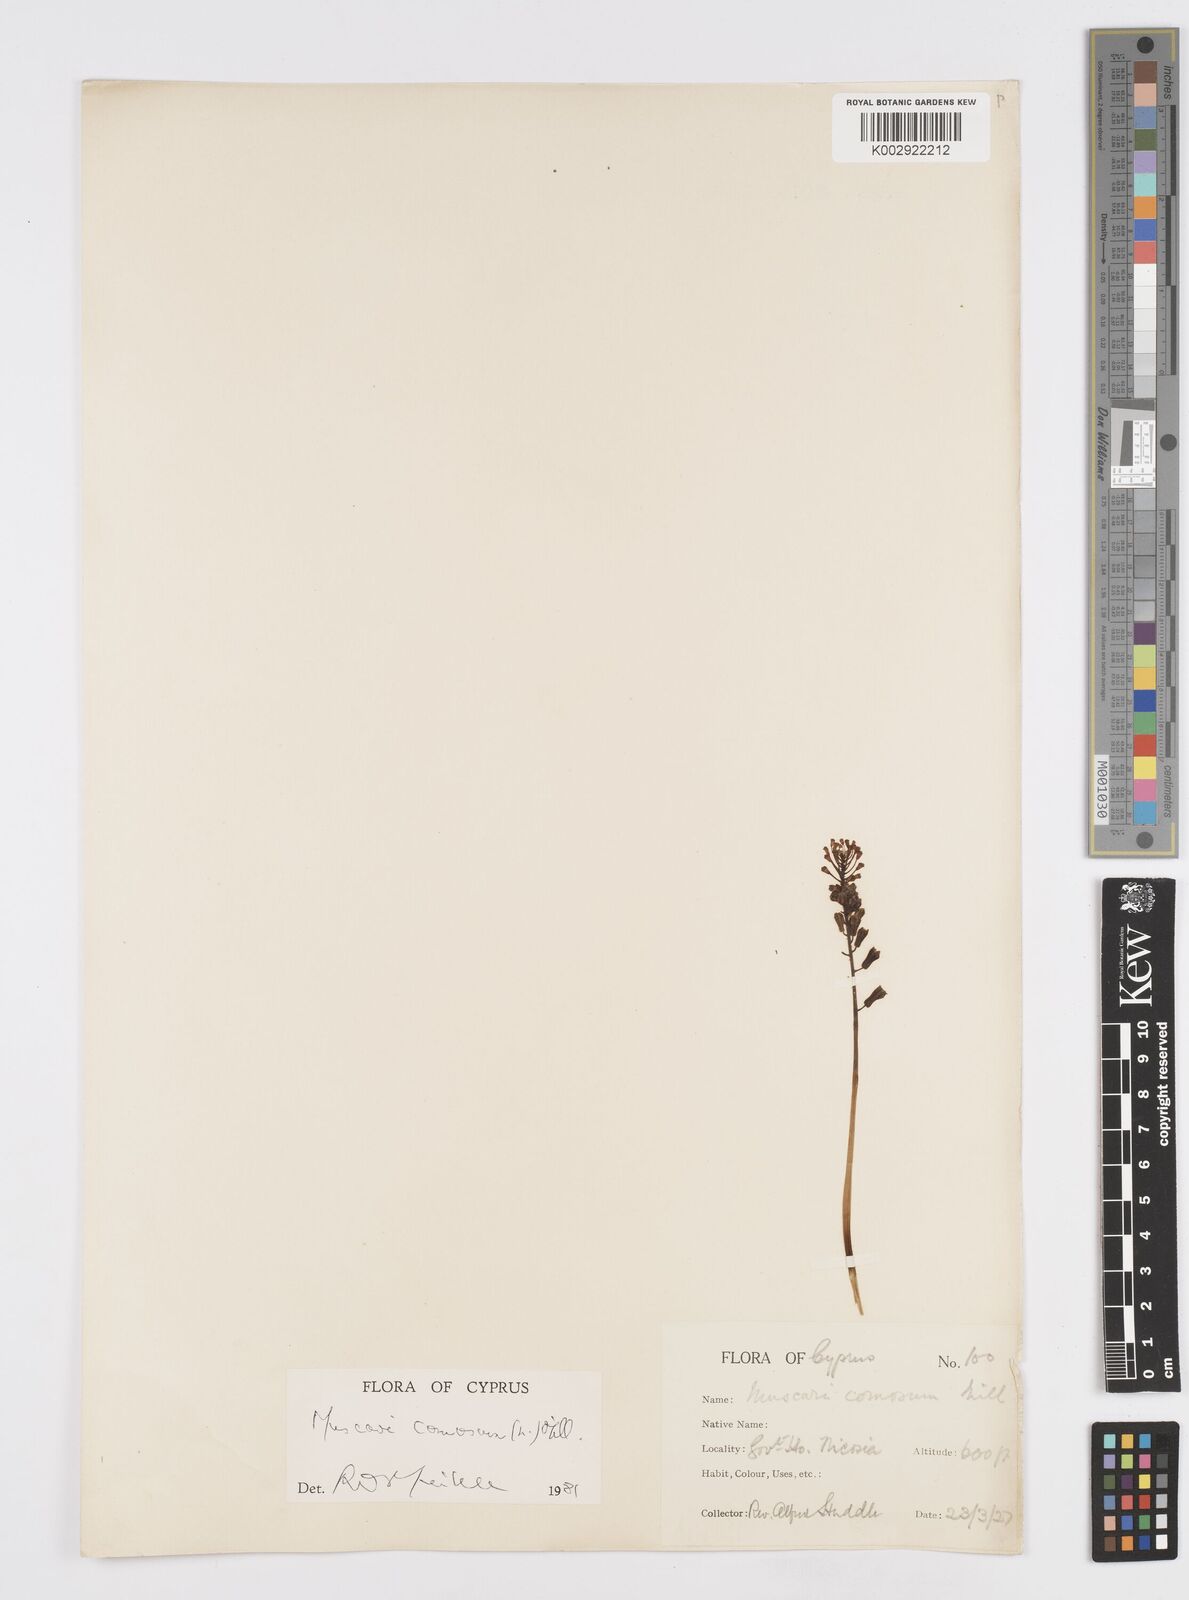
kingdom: Plantae
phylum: Tracheophyta
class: Liliopsida
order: Asparagales
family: Asparagaceae
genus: Muscari
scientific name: Muscari comosum
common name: Tassel hyacinth
